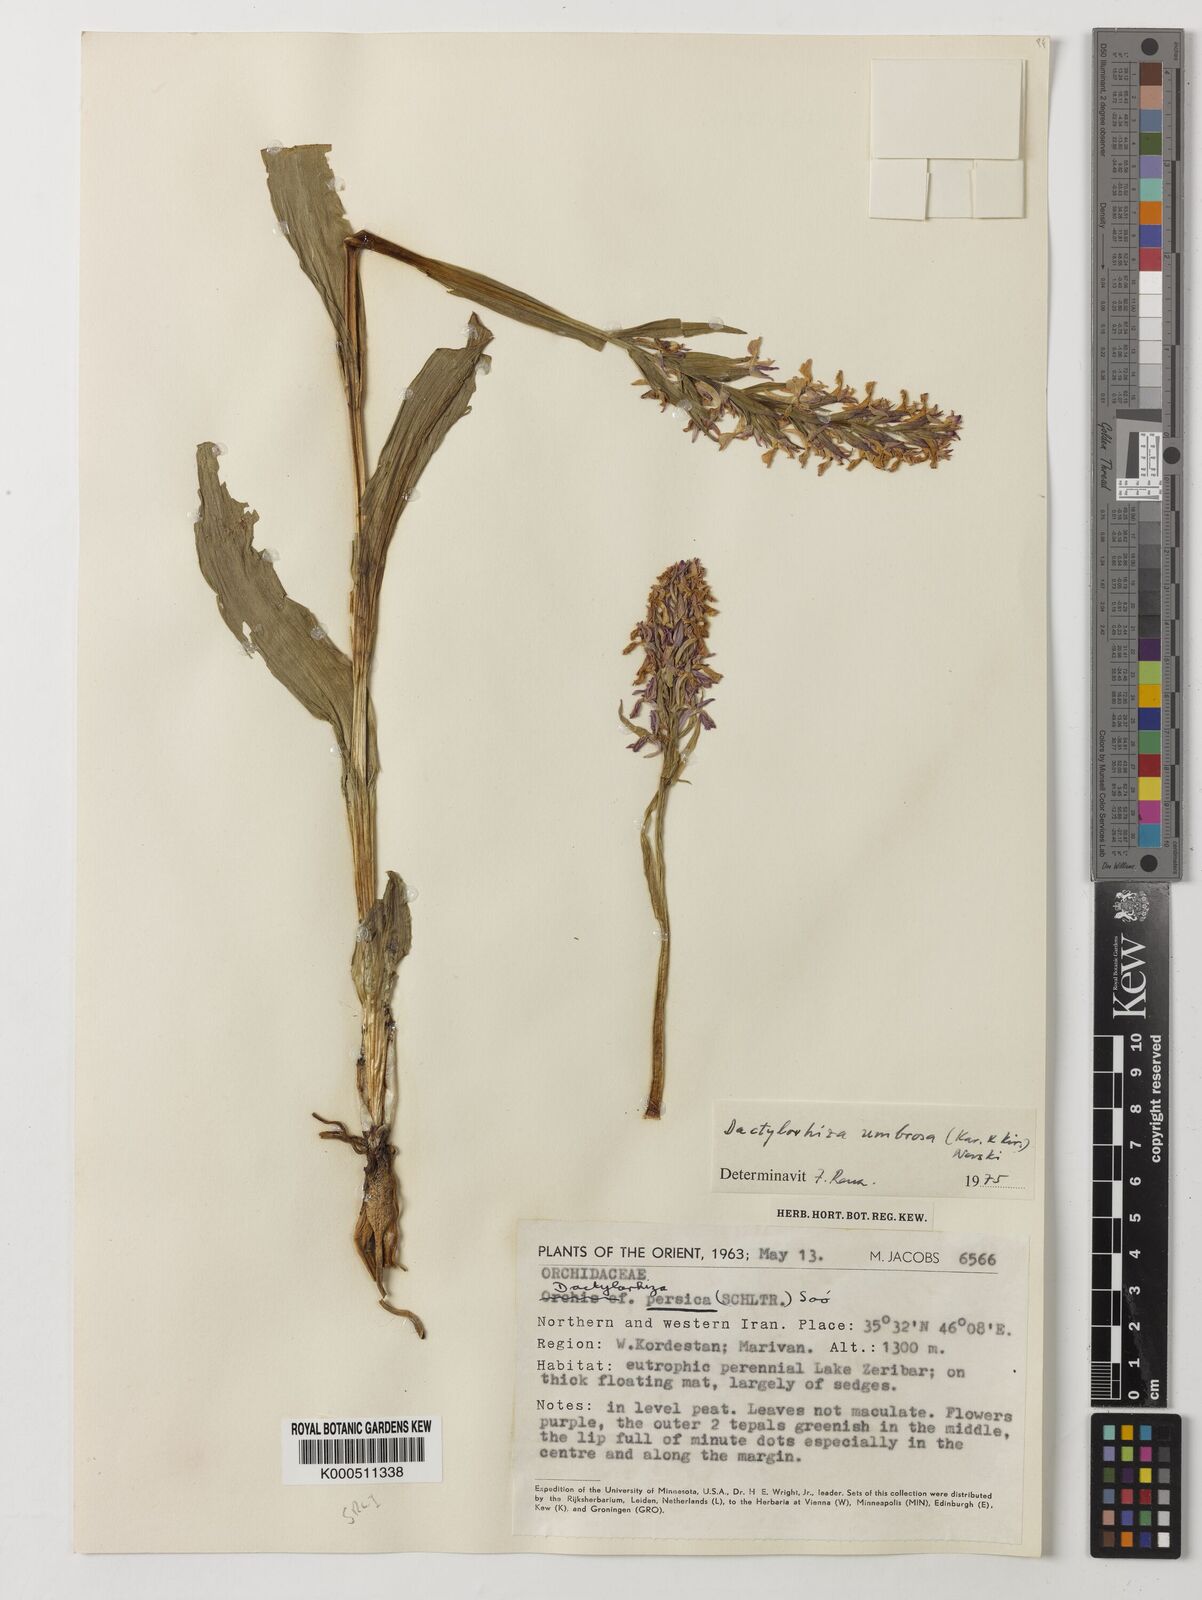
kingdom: Plantae
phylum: Tracheophyta
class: Liliopsida
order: Asparagales
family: Orchidaceae
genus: Dactylorhiza
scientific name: Dactylorhiza
